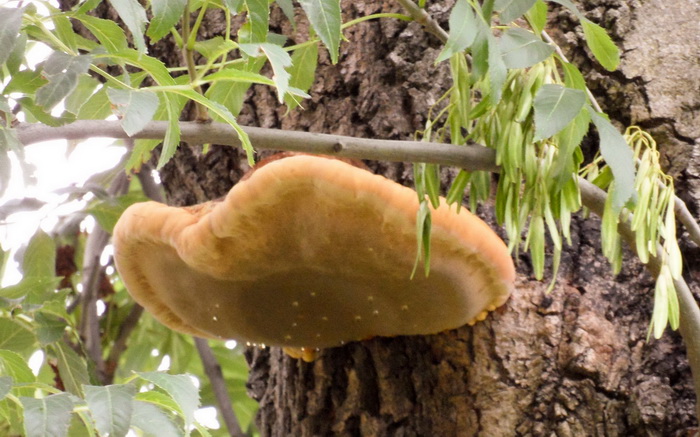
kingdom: Fungi
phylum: Basidiomycota
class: Agaricomycetes
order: Hymenochaetales
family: Hymenochaetaceae
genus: Inonotus
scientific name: Inonotus hispidus
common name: børstehåret spejlporesvamp
